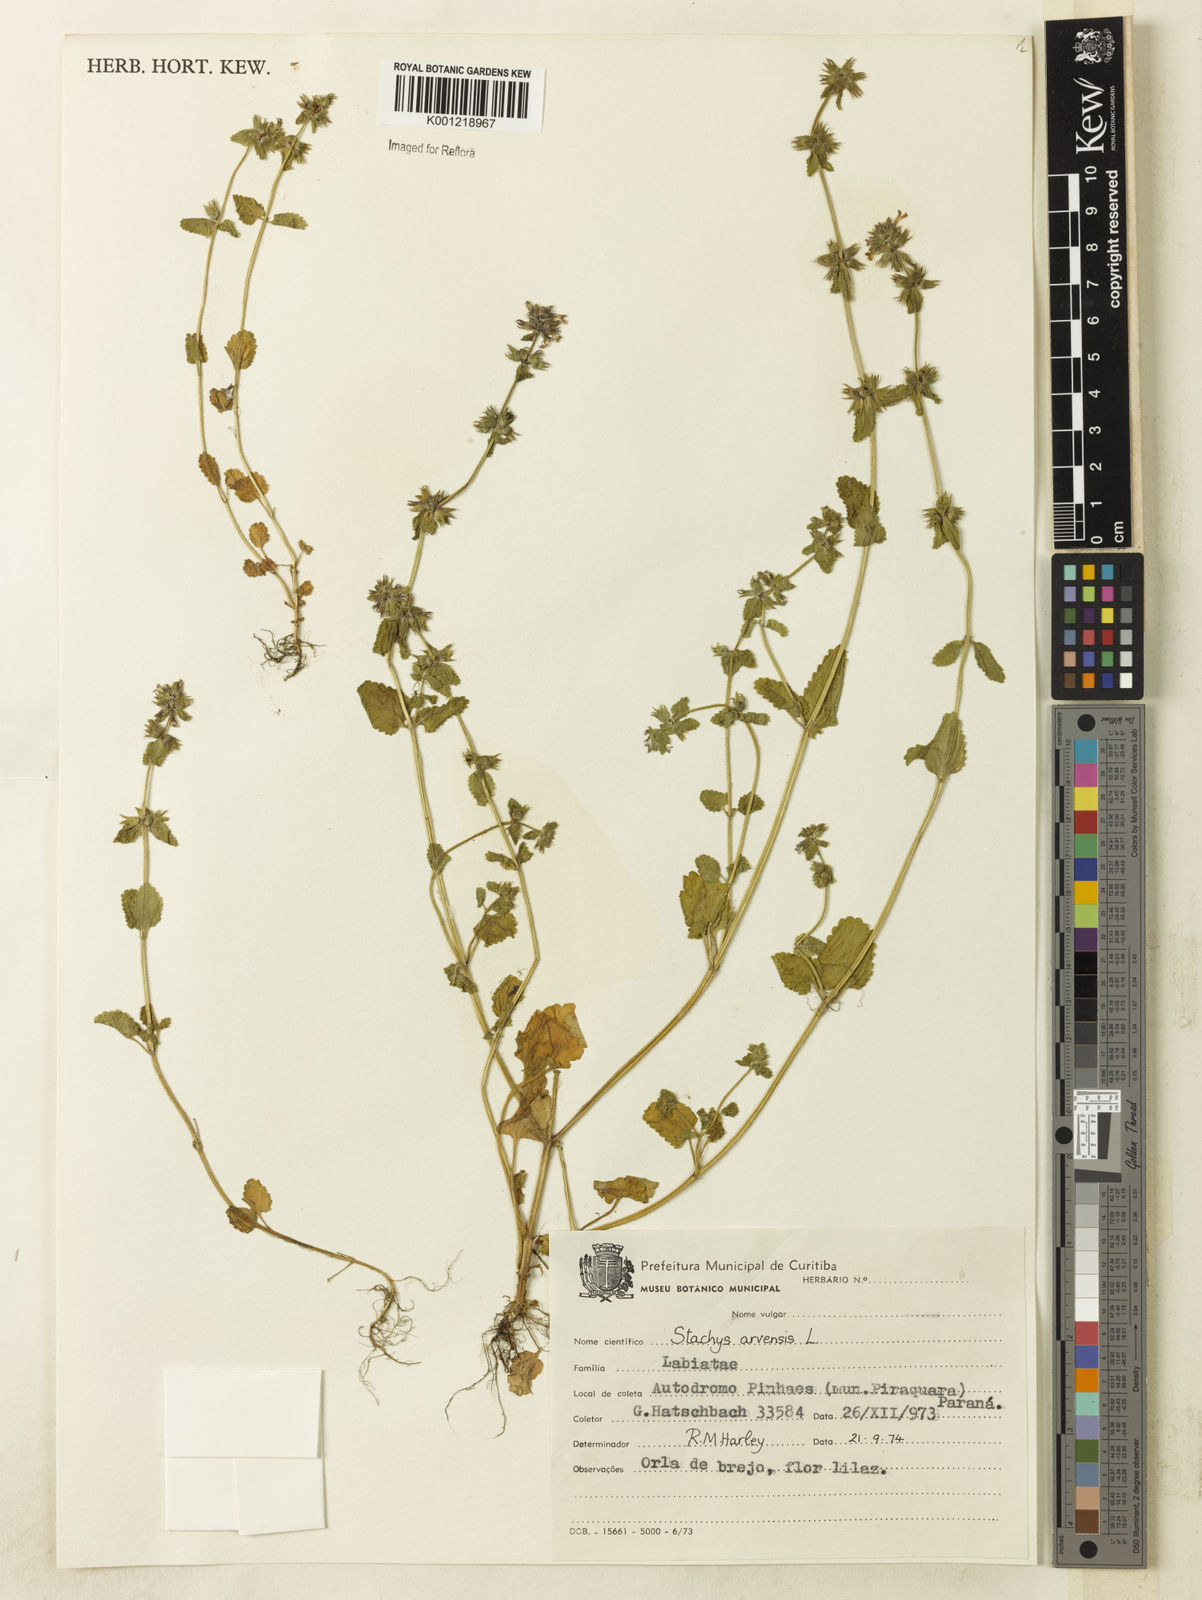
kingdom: Plantae
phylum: Tracheophyta
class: Magnoliopsida
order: Lamiales
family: Lamiaceae
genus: Stachys
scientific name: Stachys arvensis
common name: Field woundwort
